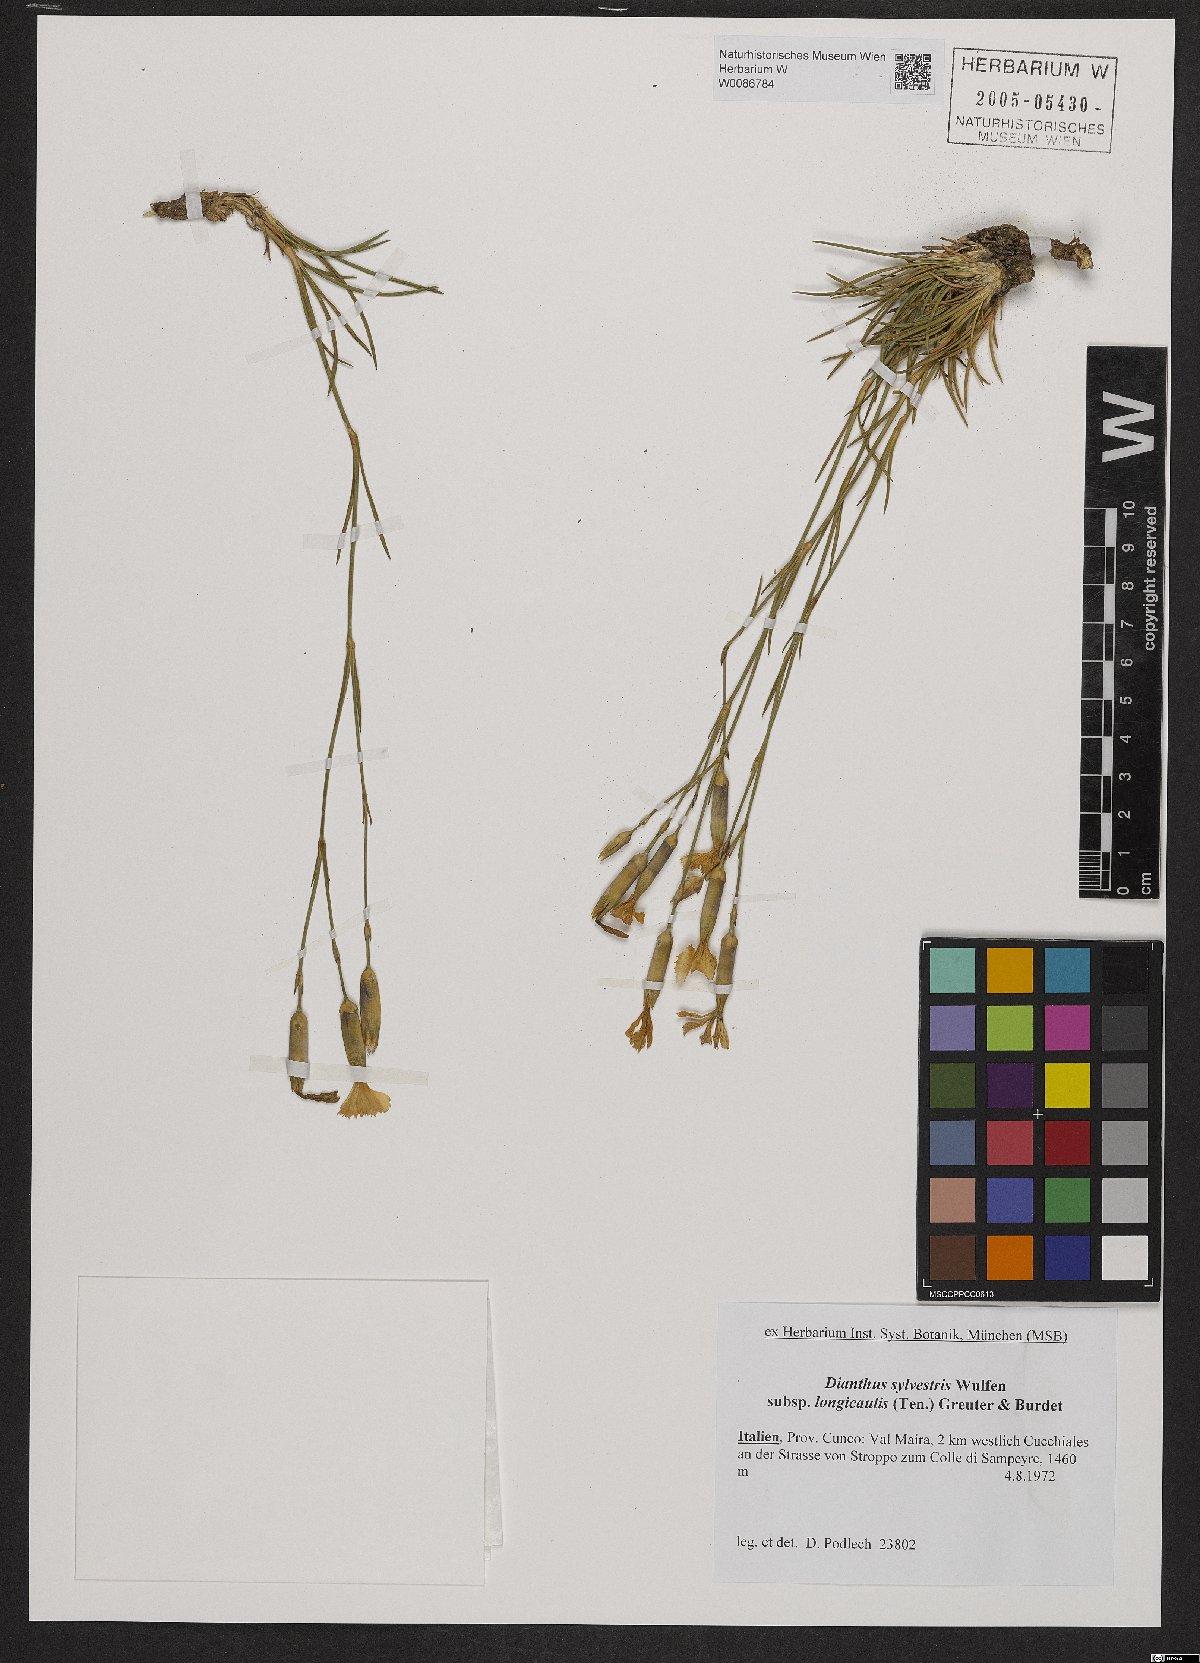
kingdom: Plantae
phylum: Tracheophyta
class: Magnoliopsida
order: Caryophyllales
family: Caryophyllaceae
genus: Dianthus
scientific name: Dianthus virgineus
